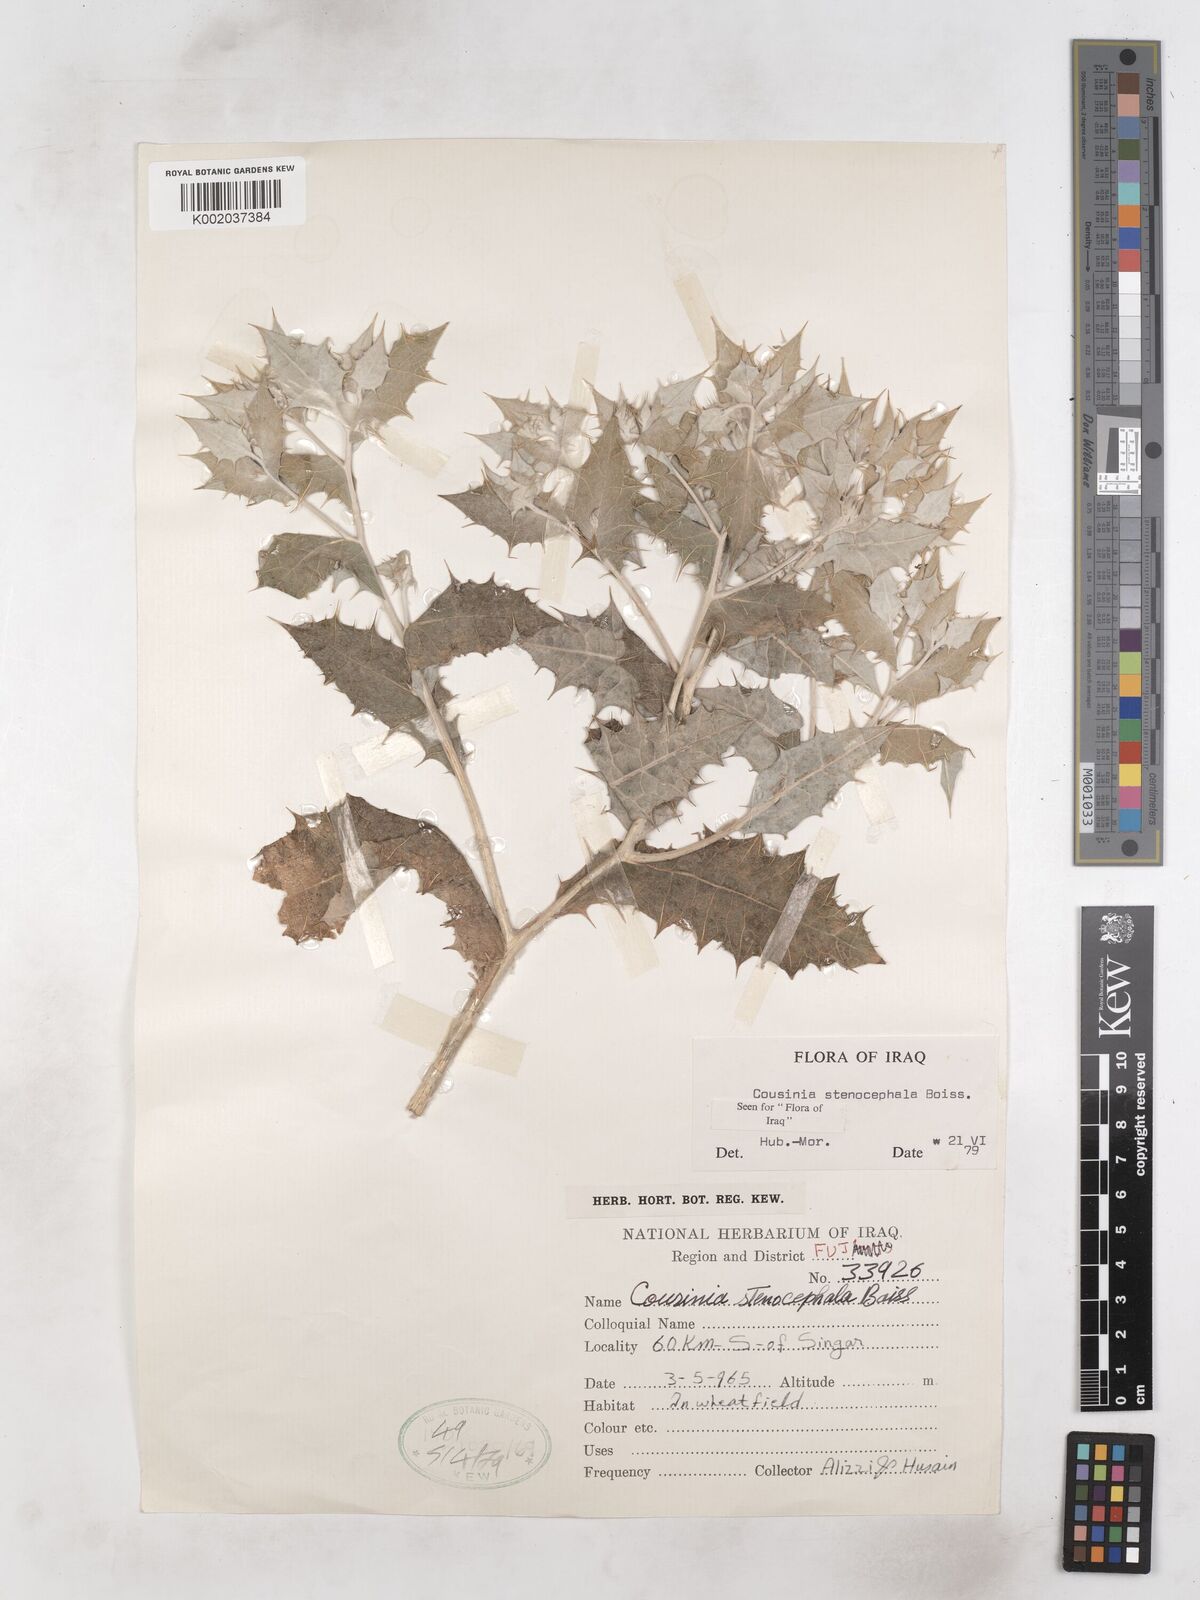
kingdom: Plantae
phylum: Tracheophyta
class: Magnoliopsida
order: Asterales
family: Asteraceae
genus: Cousinia
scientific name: Cousinia stenocephala
